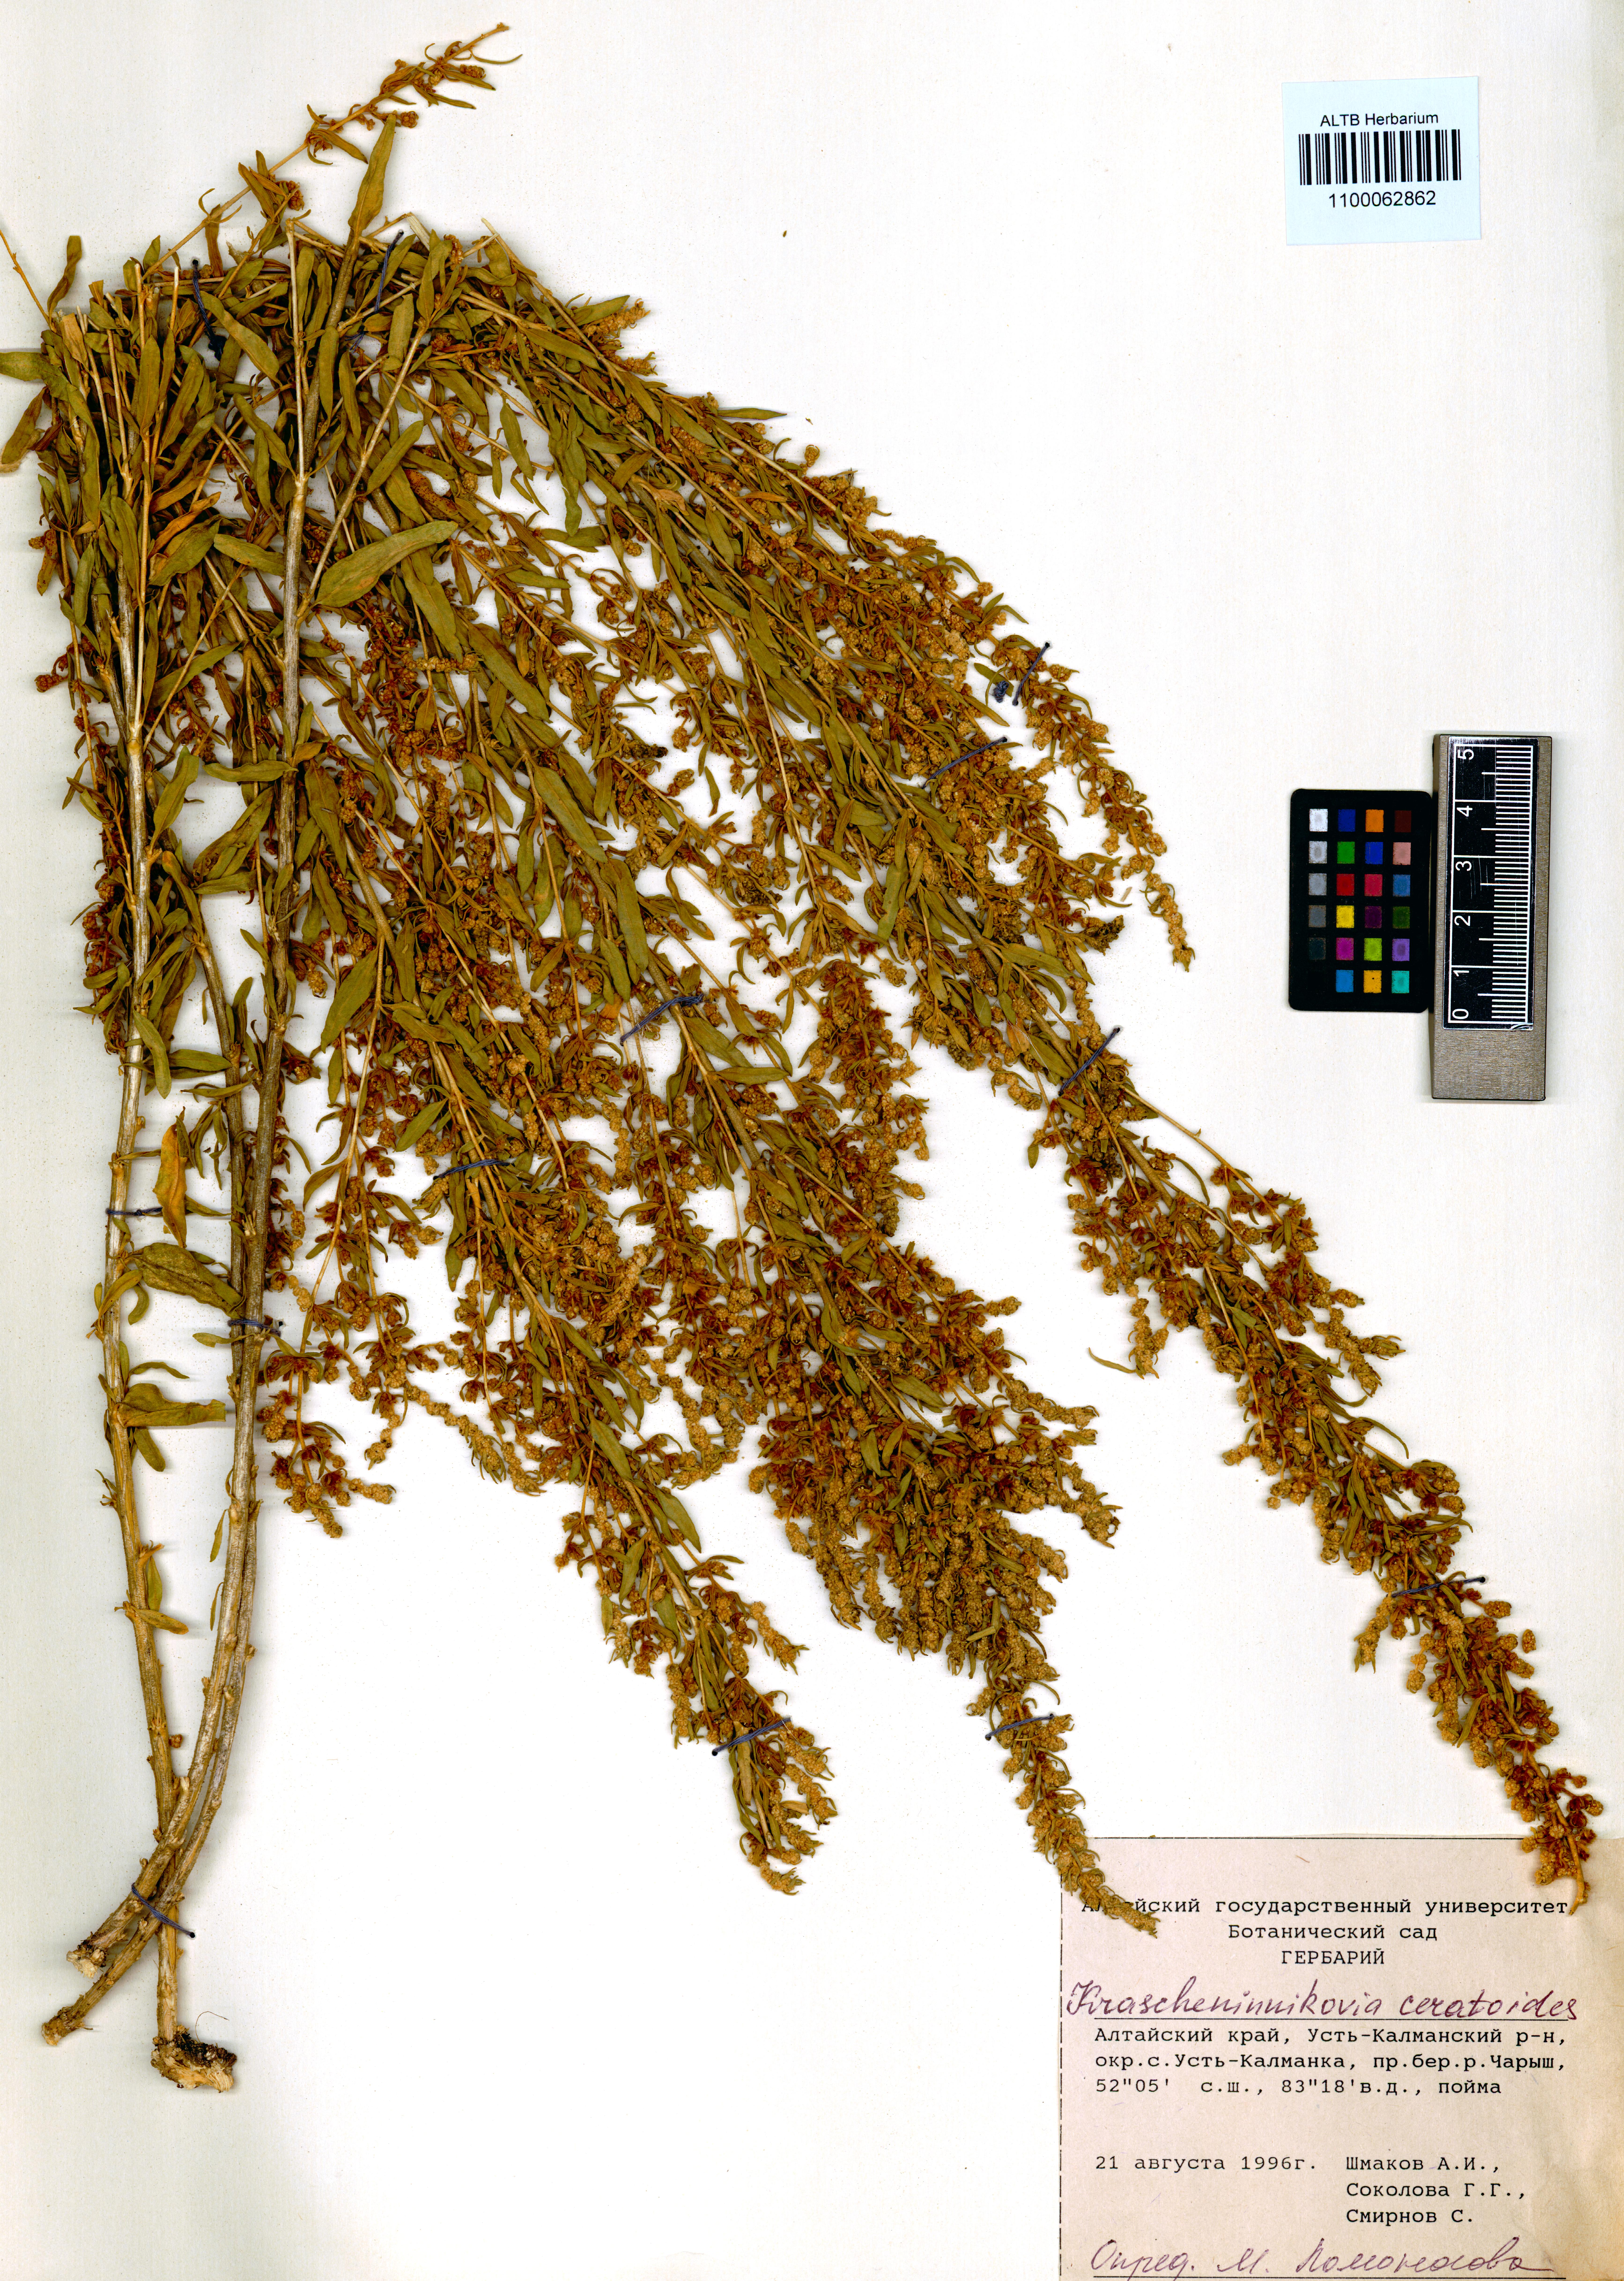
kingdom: Plantae
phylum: Tracheophyta
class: Magnoliopsida
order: Caryophyllales
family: Amaranthaceae
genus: Krascheninnikovia
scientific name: Krascheninnikovia ceratoides
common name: Pamirian winterfat
